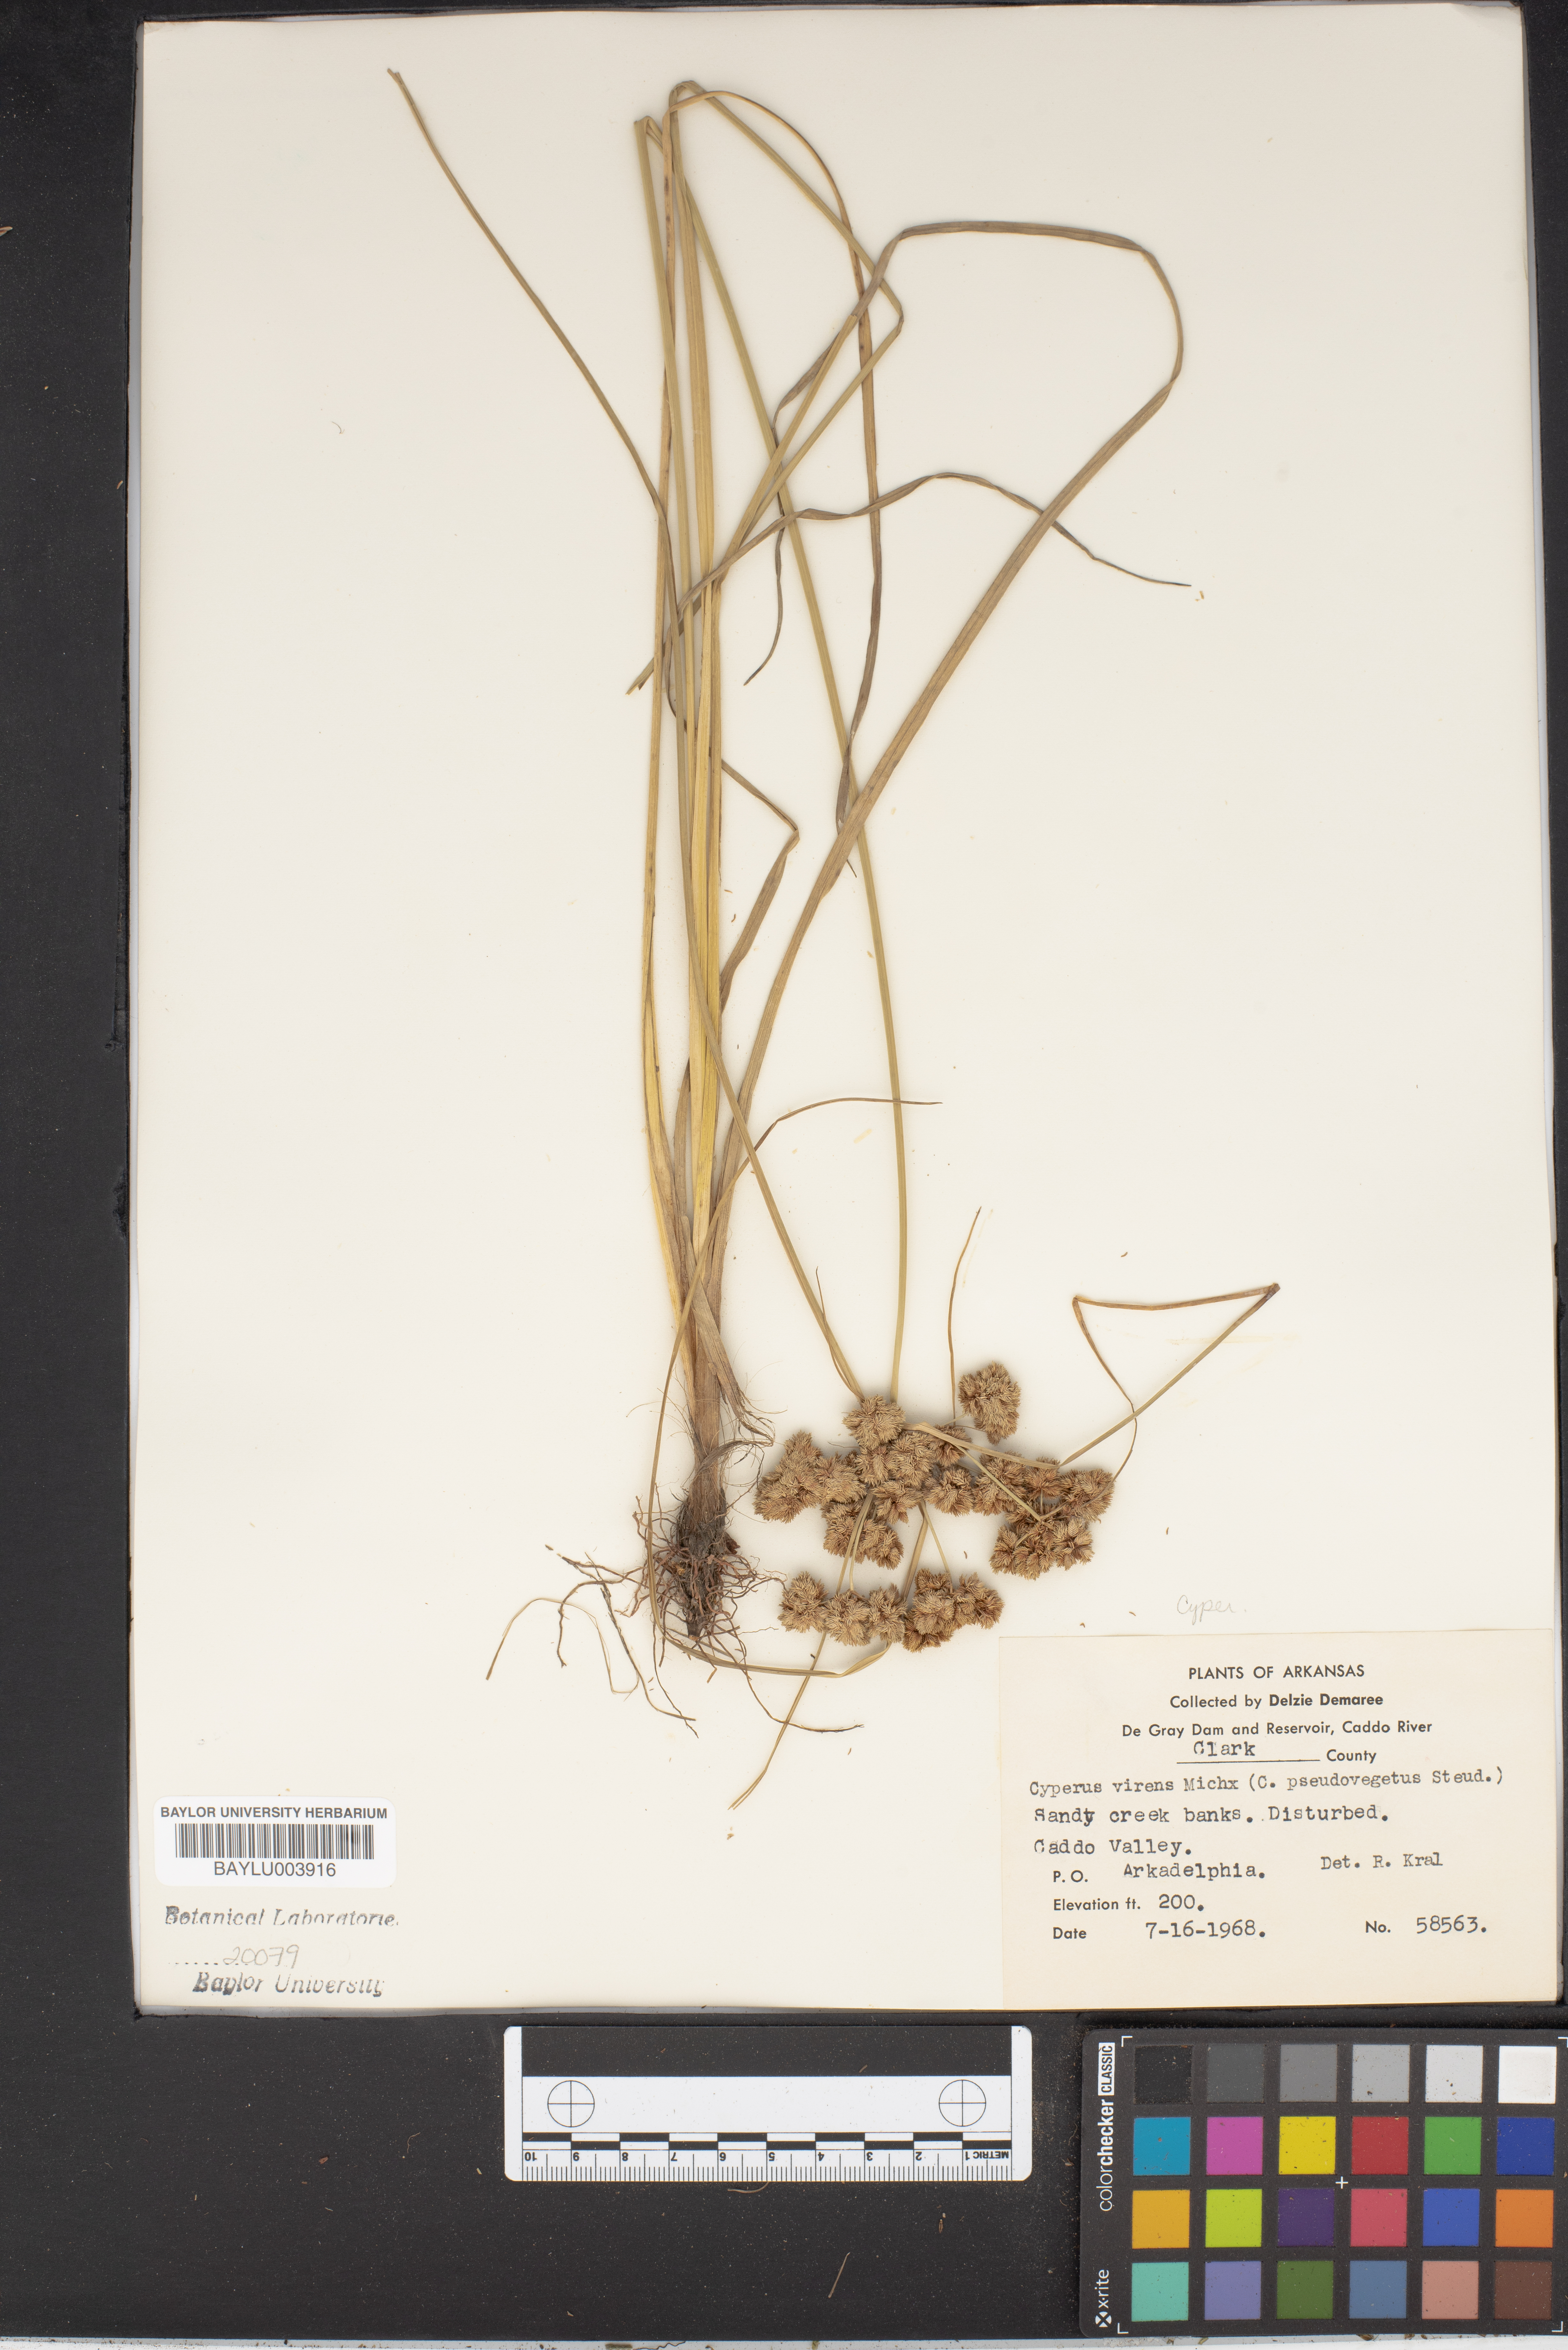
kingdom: Plantae
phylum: Tracheophyta
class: Liliopsida
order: Poales
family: Cyperaceae
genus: Cyperus
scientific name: Cyperus virens
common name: Green flatsedge
